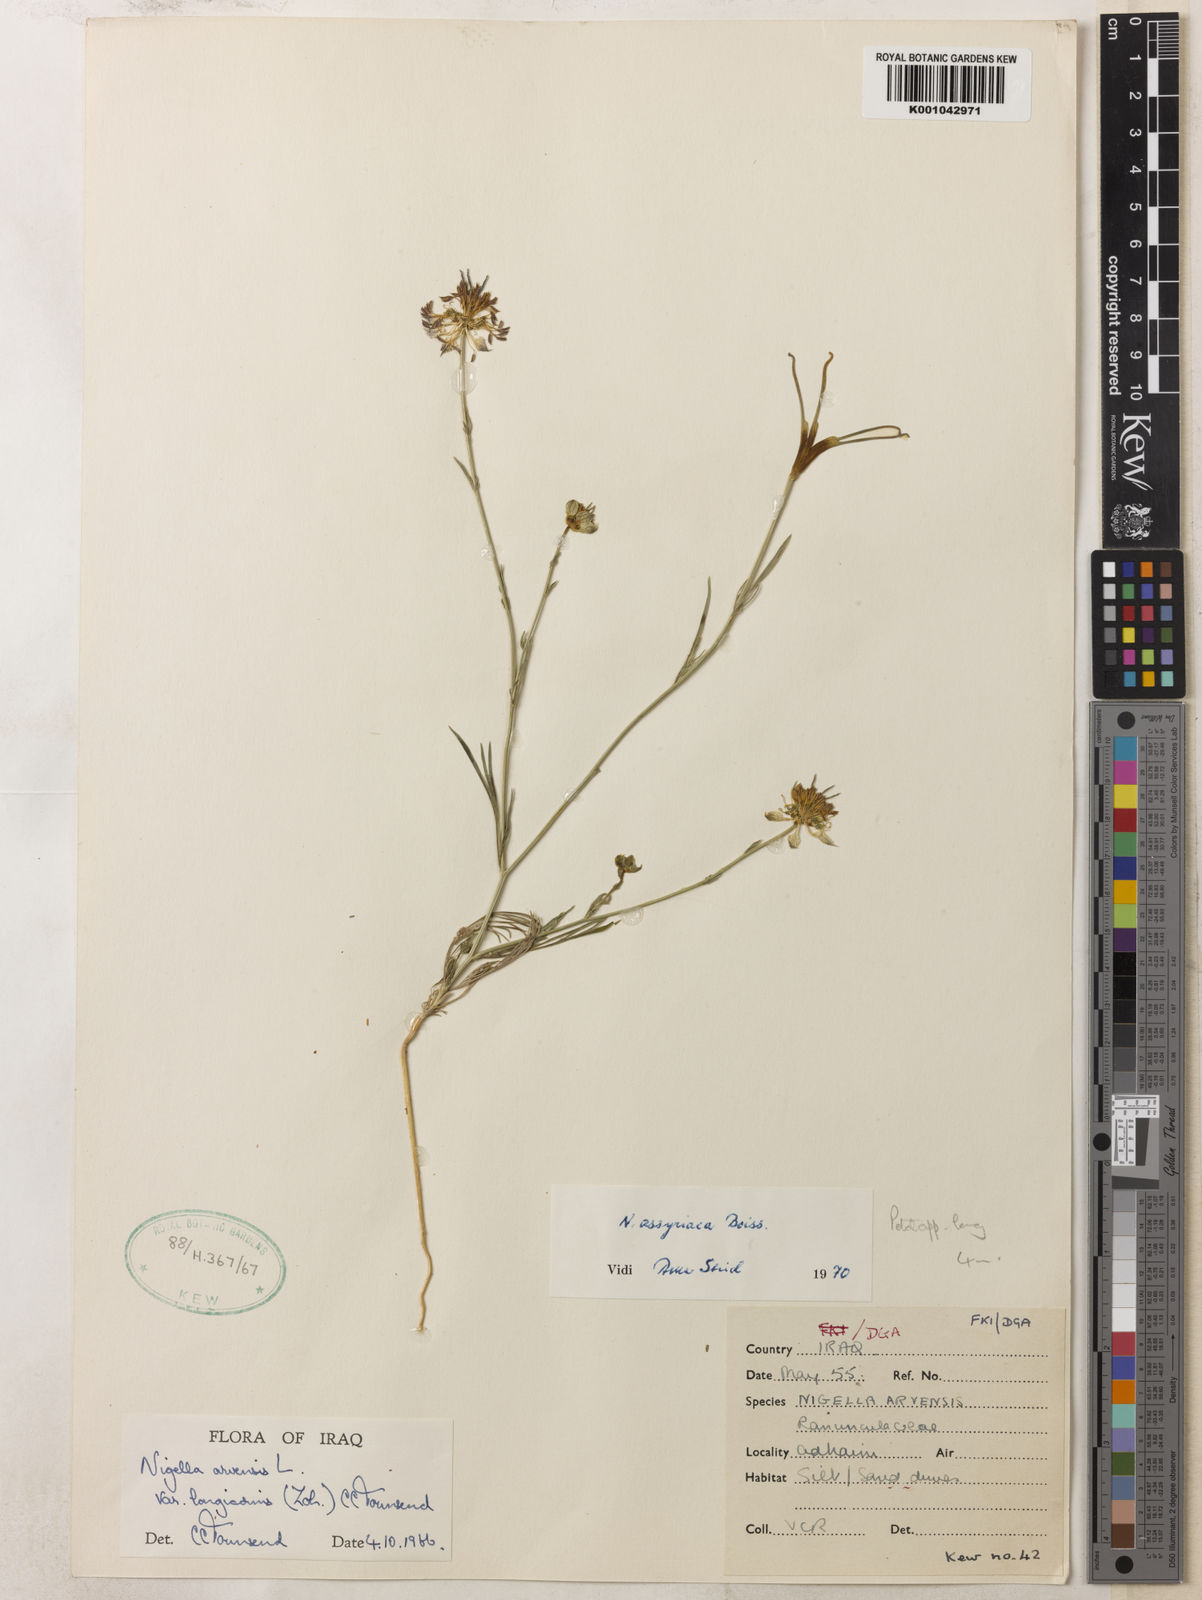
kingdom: Plantae
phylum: Tracheophyta
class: Magnoliopsida
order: Ranunculales
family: Ranunculaceae
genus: Nigella
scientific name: Nigella arvensis
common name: Wild fennel-flower
